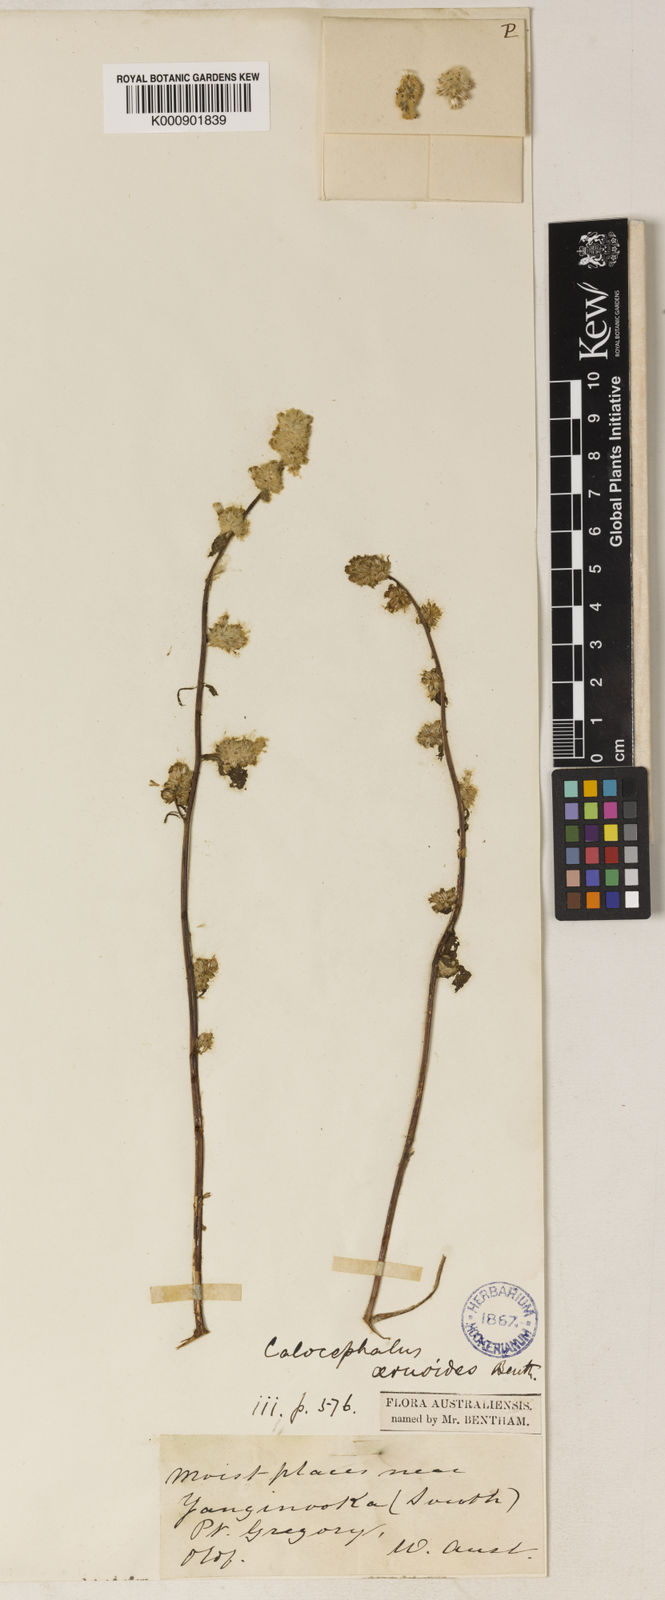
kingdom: Plantae
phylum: Tracheophyta
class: Magnoliopsida
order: Asterales
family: Asteraceae
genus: Balladonia
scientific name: Balladonia aervoides
